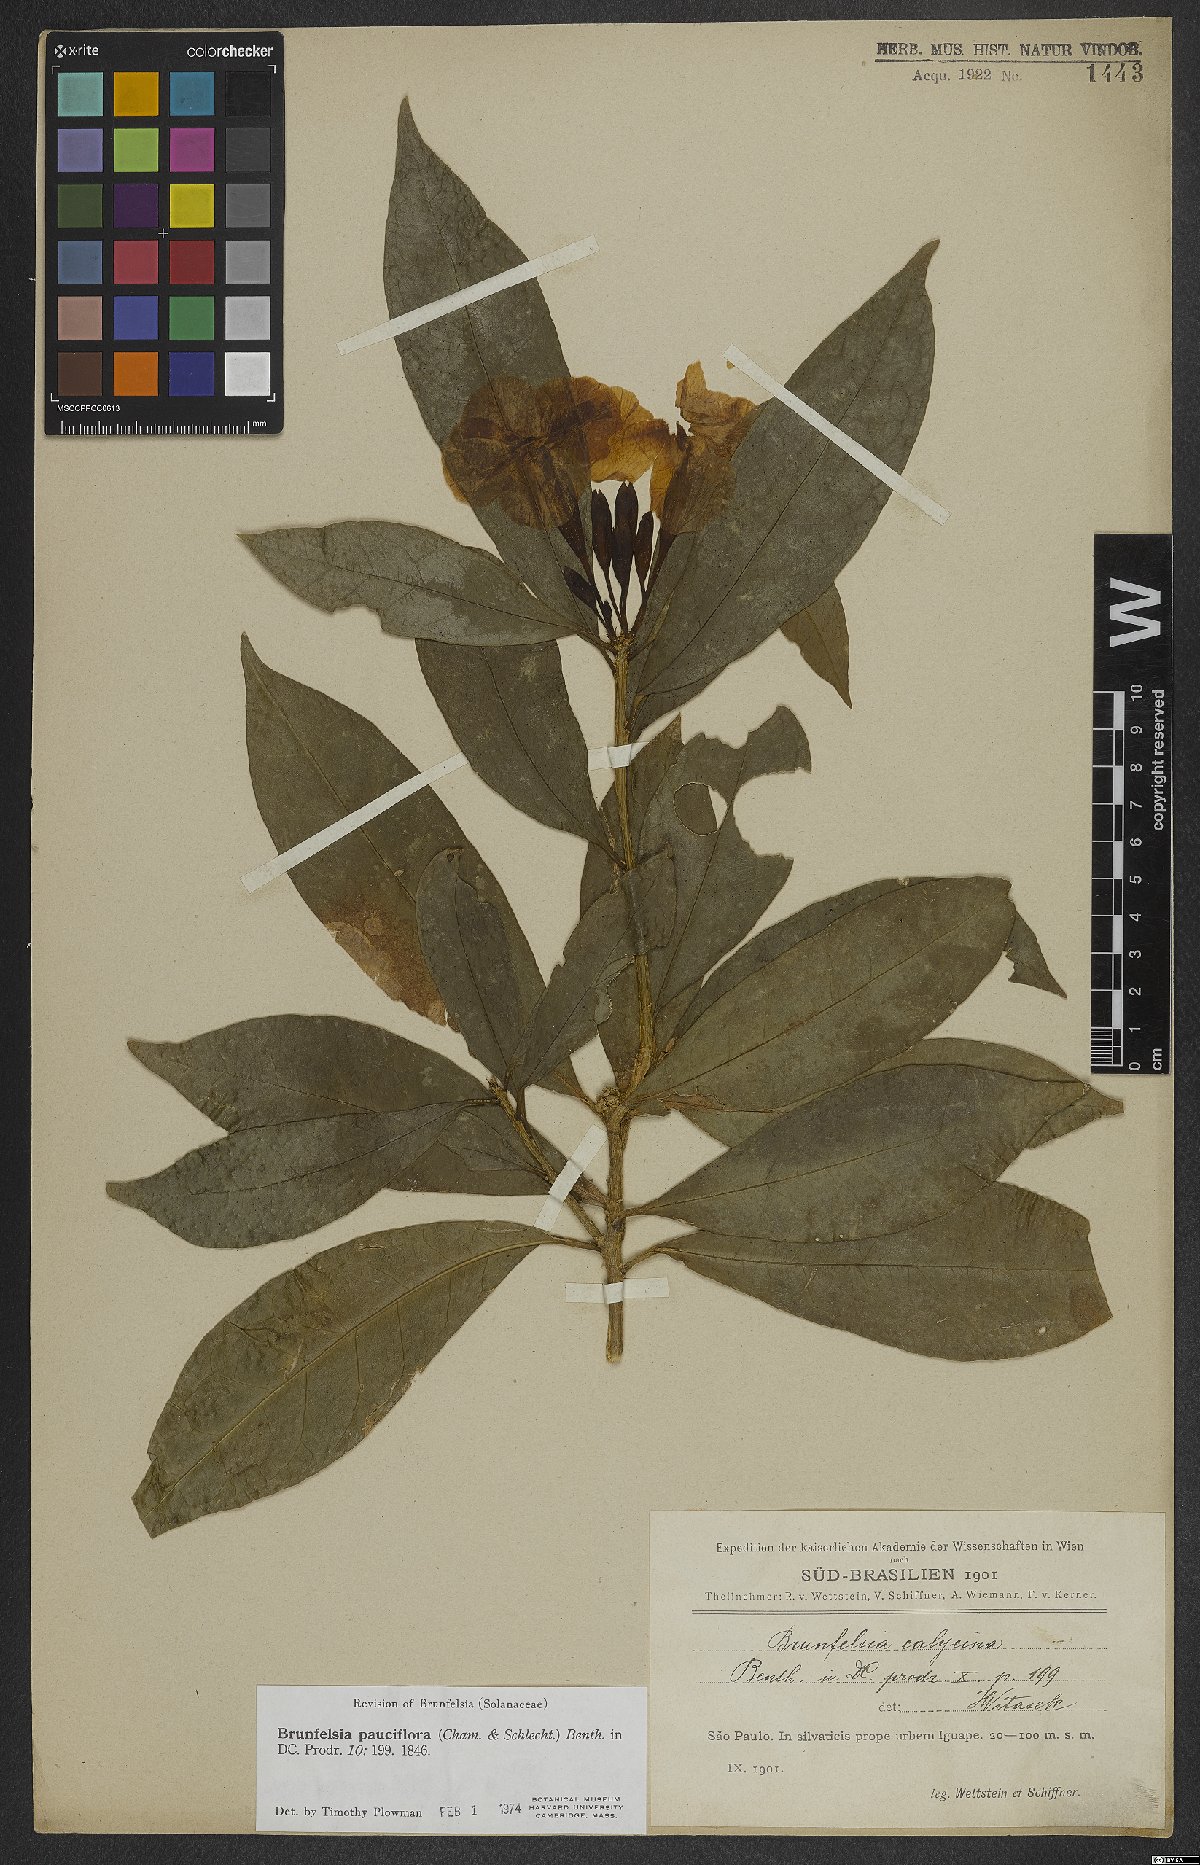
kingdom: Plantae
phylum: Tracheophyta
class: Magnoliopsida
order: Solanales
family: Solanaceae
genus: Brunfelsia
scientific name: Brunfelsia pauciflora
